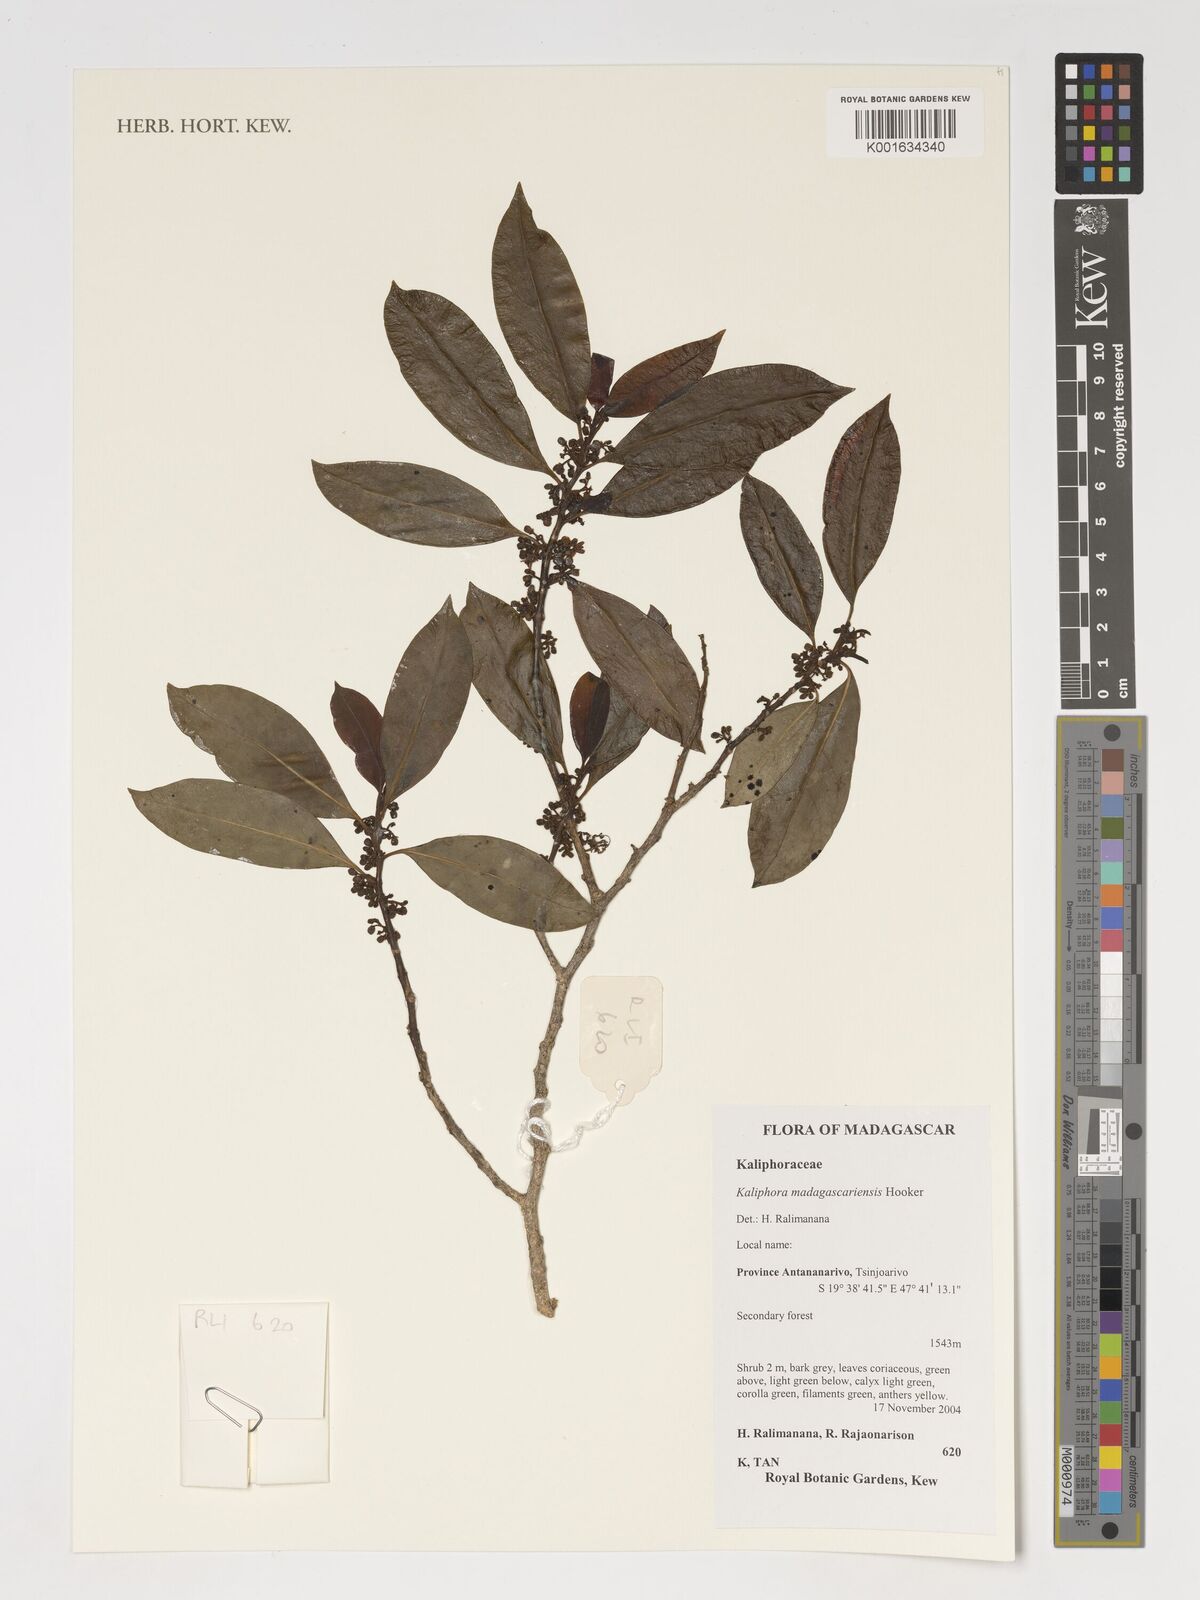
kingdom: Plantae
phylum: Tracheophyta
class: Magnoliopsida
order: Solanales
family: Montiniaceae
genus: Kaliphora
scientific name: Kaliphora madagascariensis
